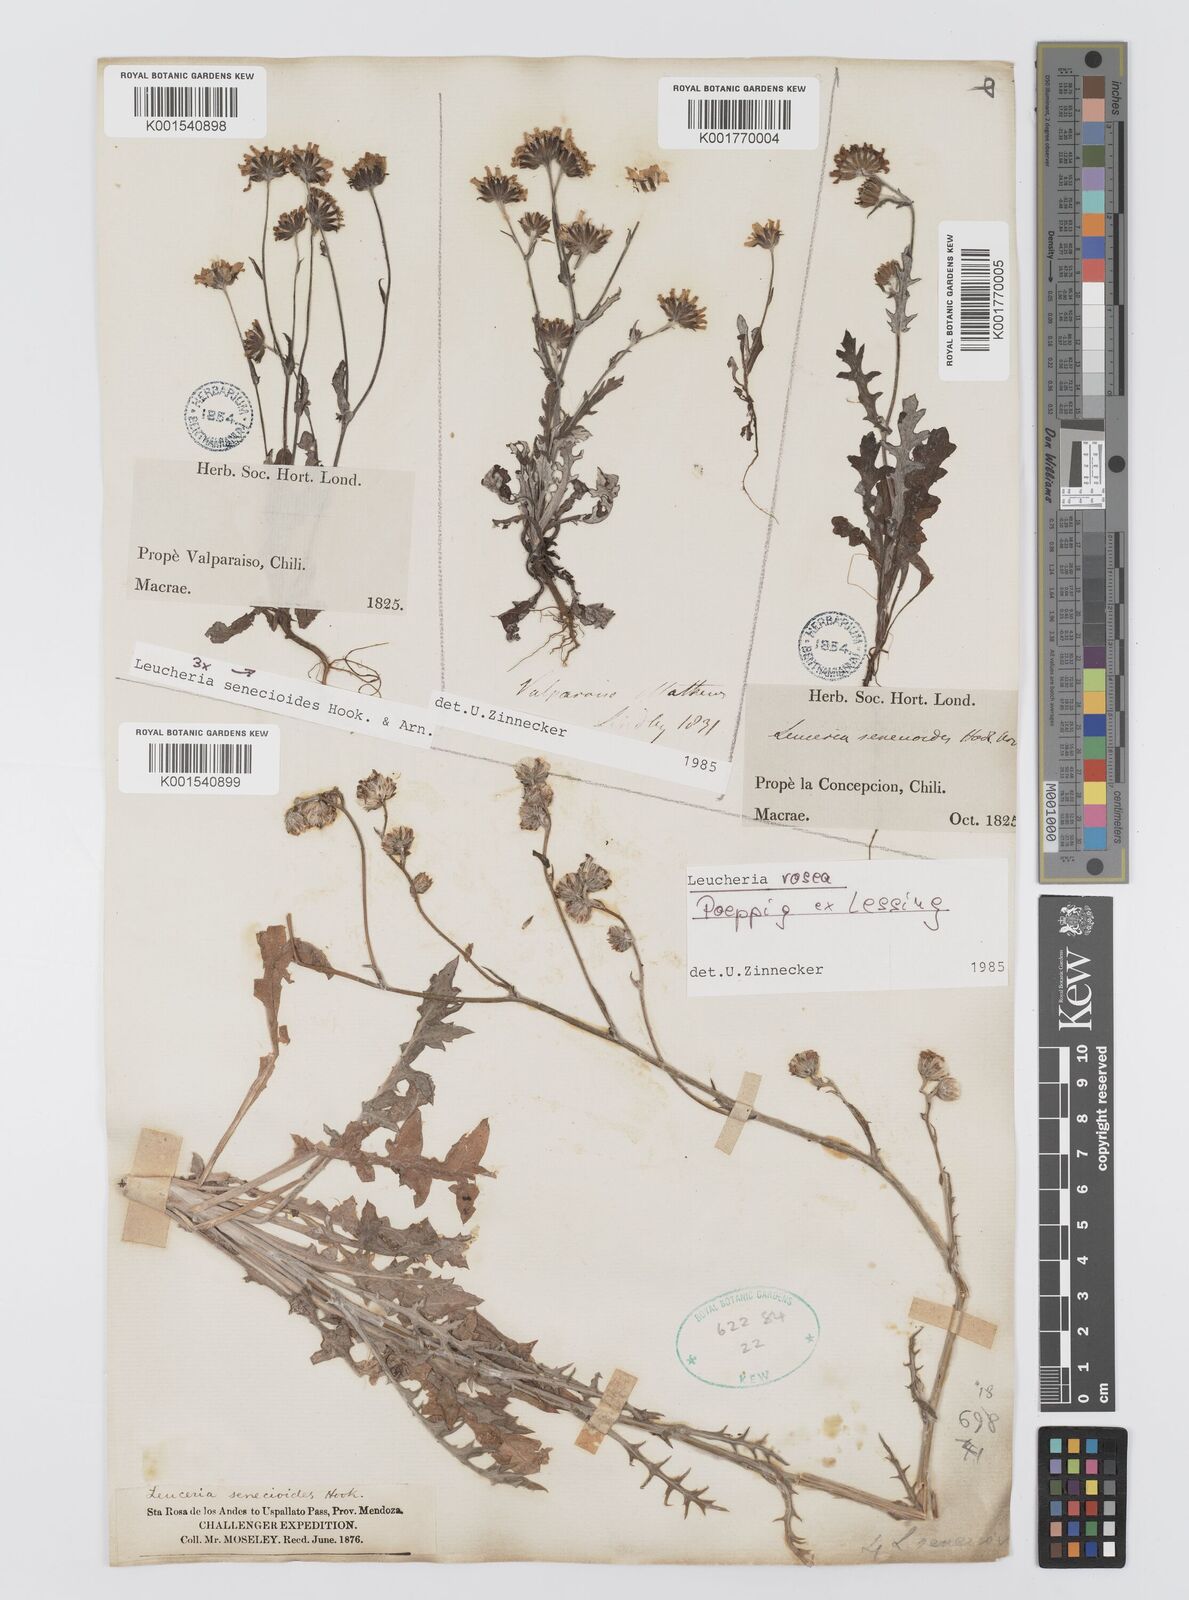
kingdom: Plantae
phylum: Tracheophyta
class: Magnoliopsida
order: Asterales
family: Asteraceae
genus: Leucheria
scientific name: Leucheria rosea
